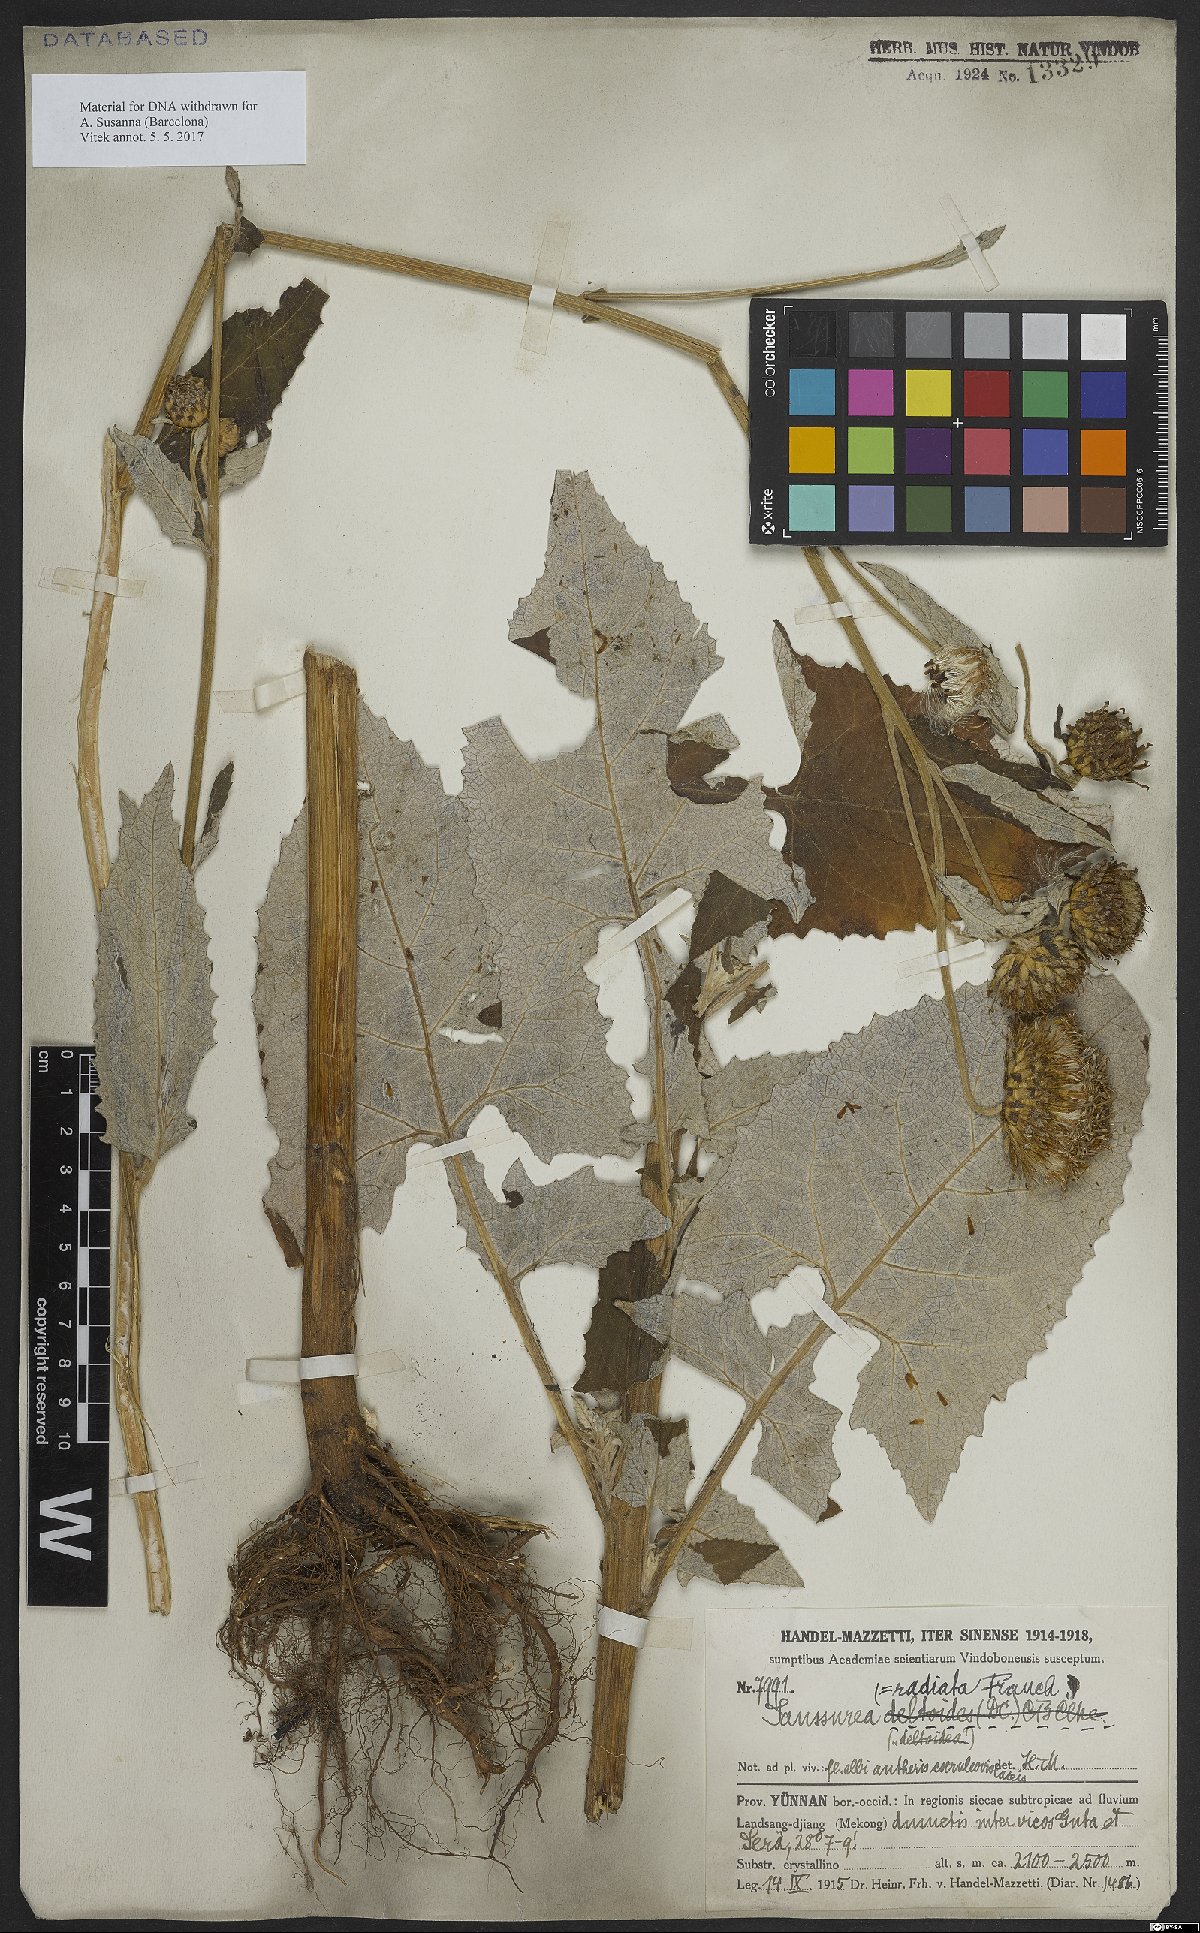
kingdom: Plantae
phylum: Tracheophyta
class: Magnoliopsida
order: Asterales
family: Asteraceae
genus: Jurinea
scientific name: Jurinea deltoidea
